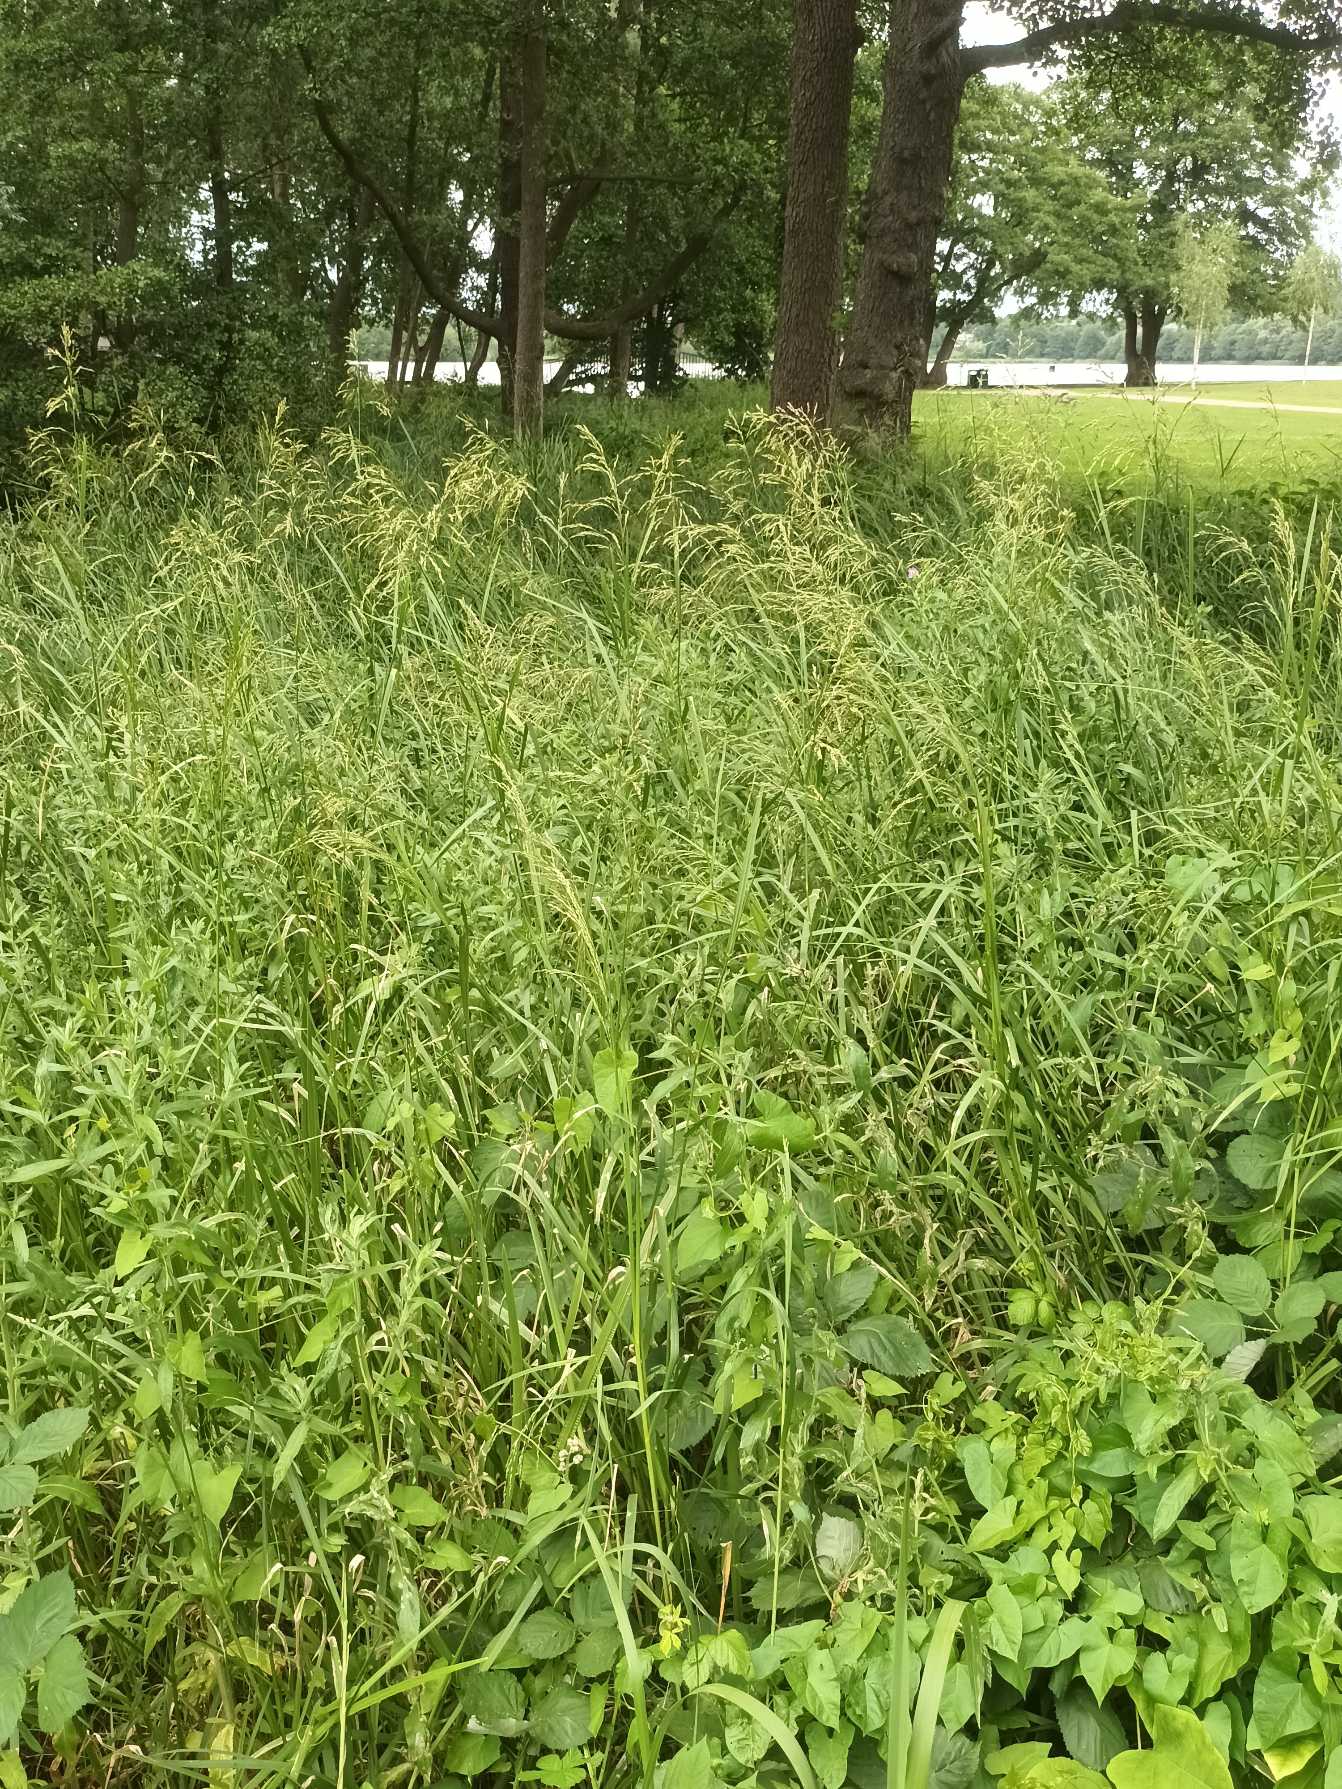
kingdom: Plantae
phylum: Tracheophyta
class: Liliopsida
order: Poales
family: Poaceae
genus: Glyceria
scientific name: Glyceria maxima
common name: Høj sødgræs
